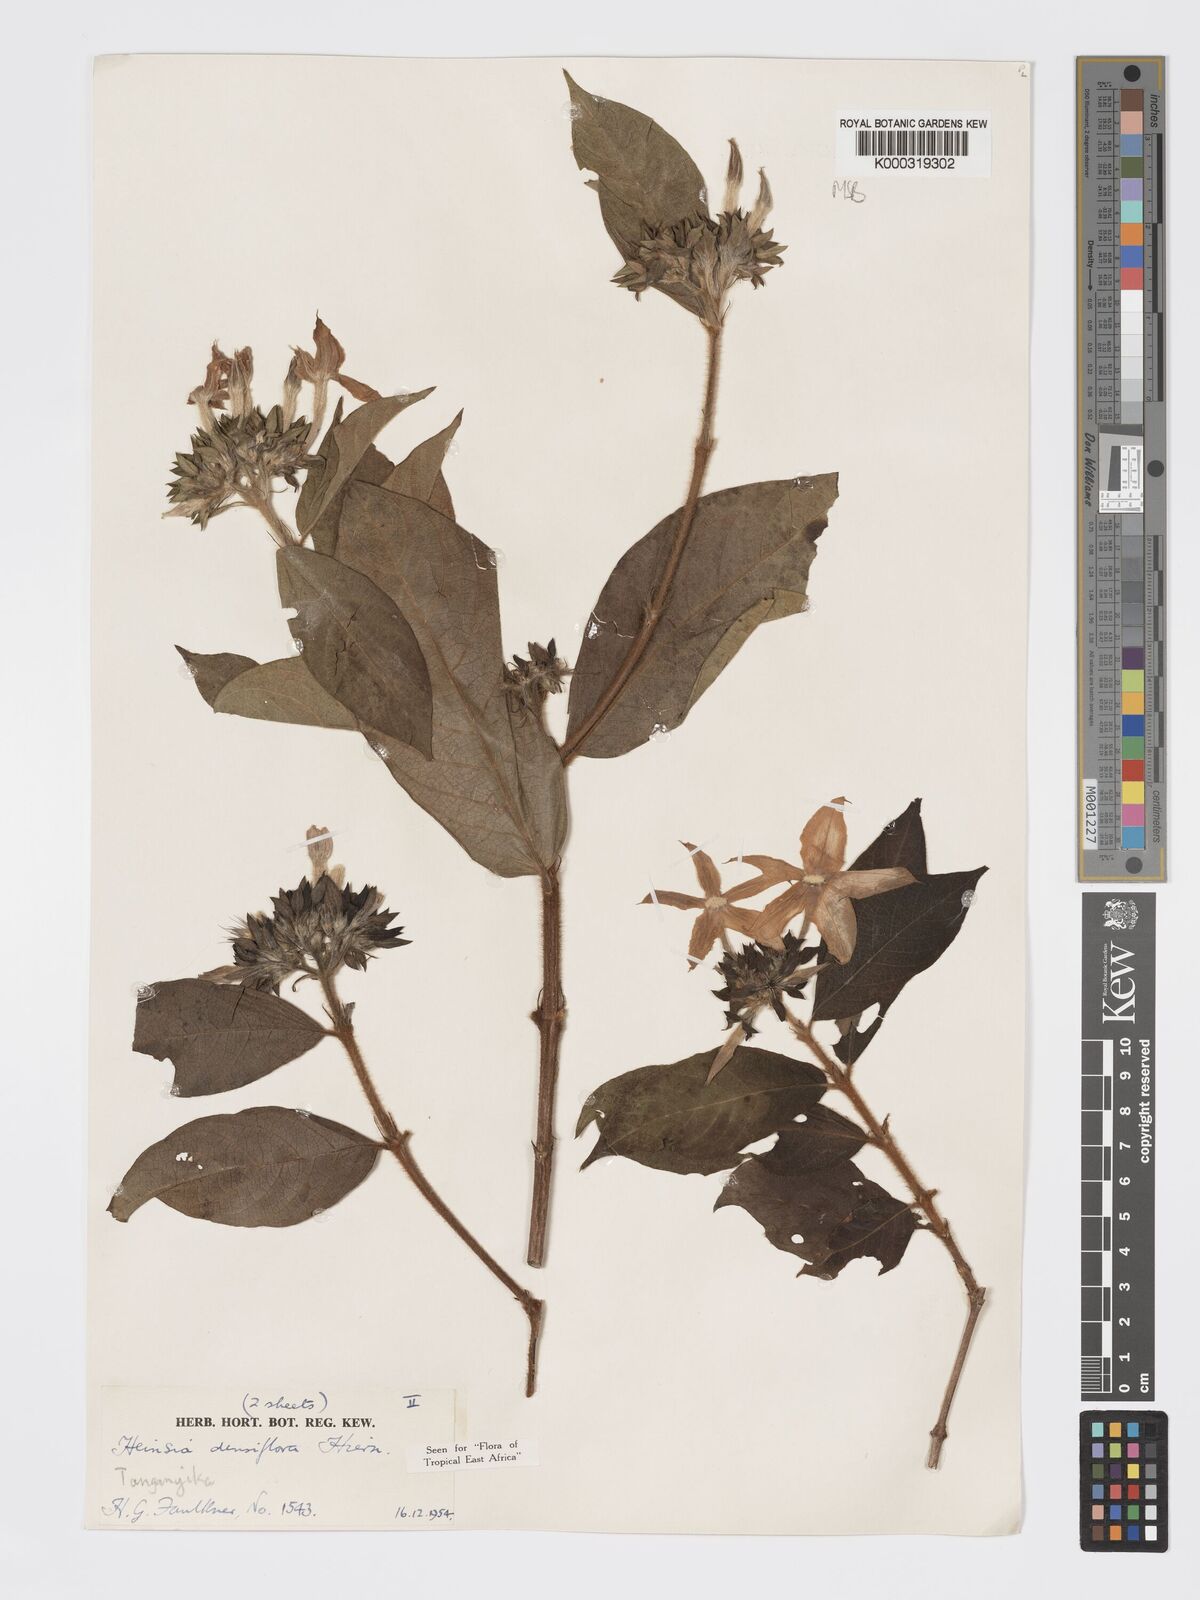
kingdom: Plantae
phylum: Tracheophyta
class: Magnoliopsida
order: Gentianales
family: Rubiaceae
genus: Heinsia
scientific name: Heinsia zanzibarica
